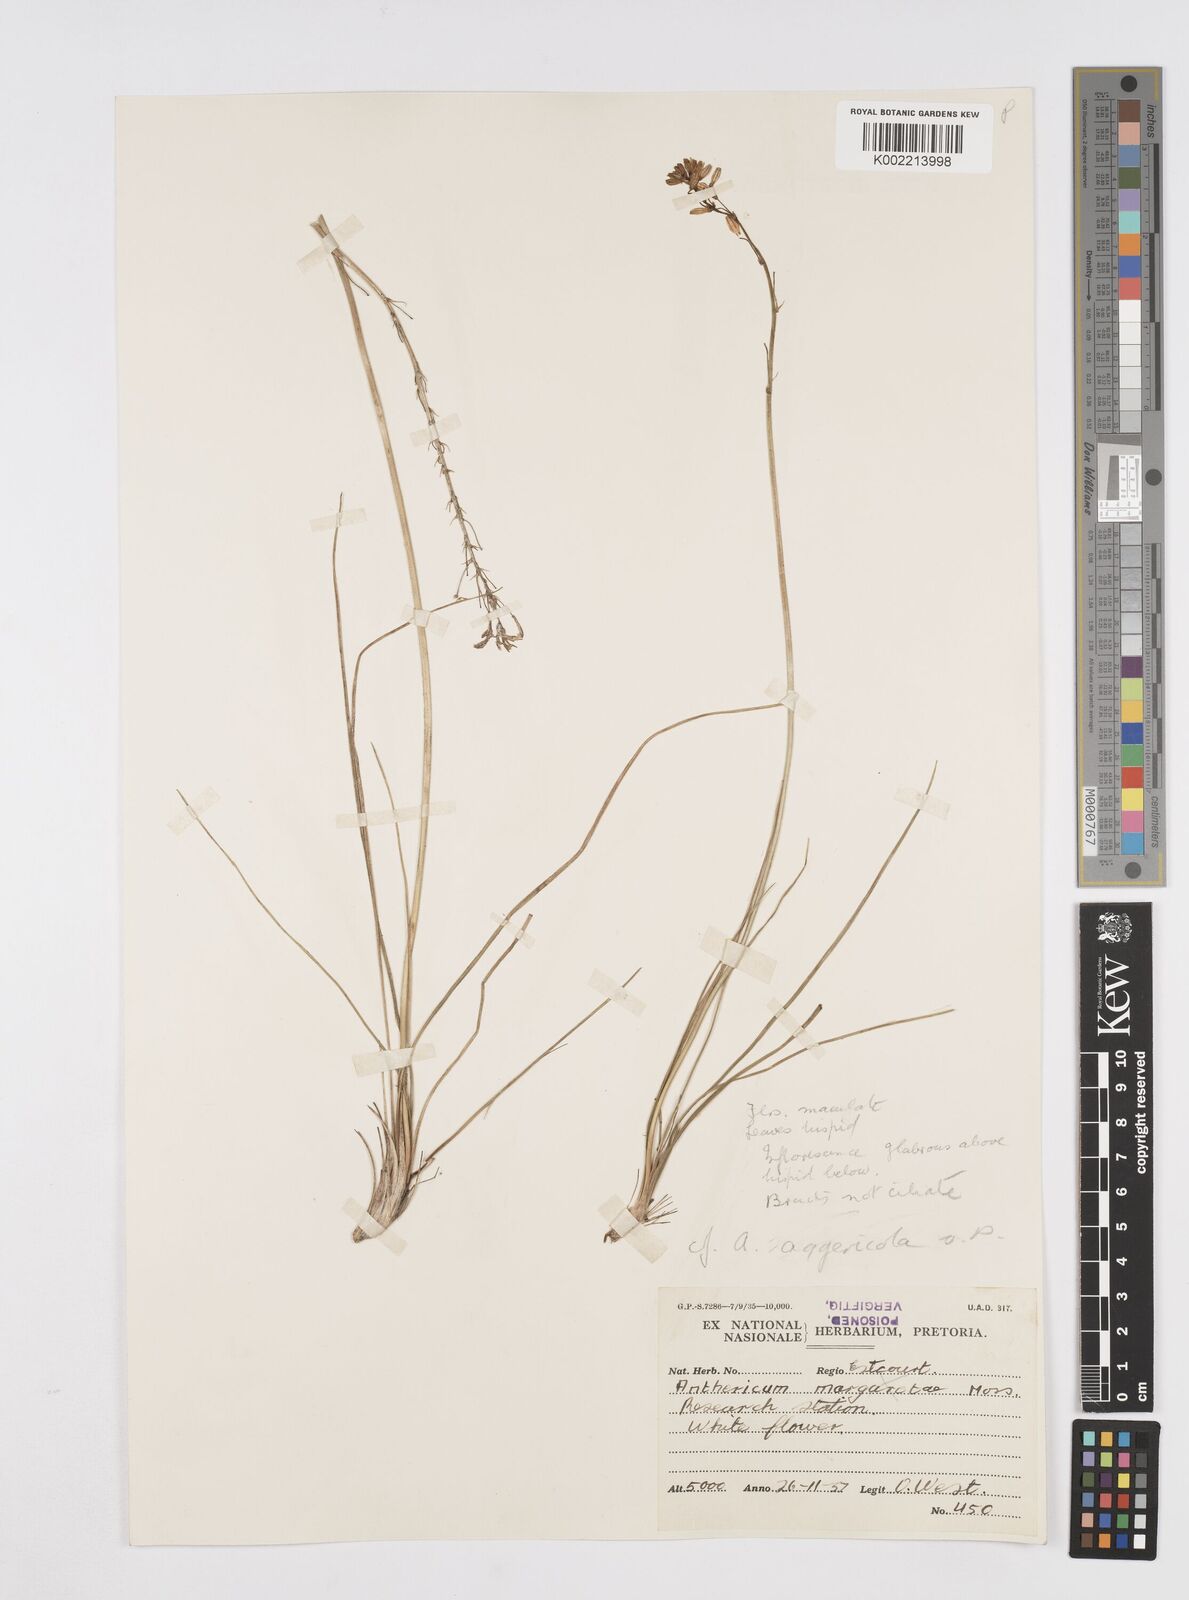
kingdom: Plantae
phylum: Tracheophyta
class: Liliopsida
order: Asparagales
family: Asphodelaceae
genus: Trachyandra
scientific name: Trachyandra asperata
